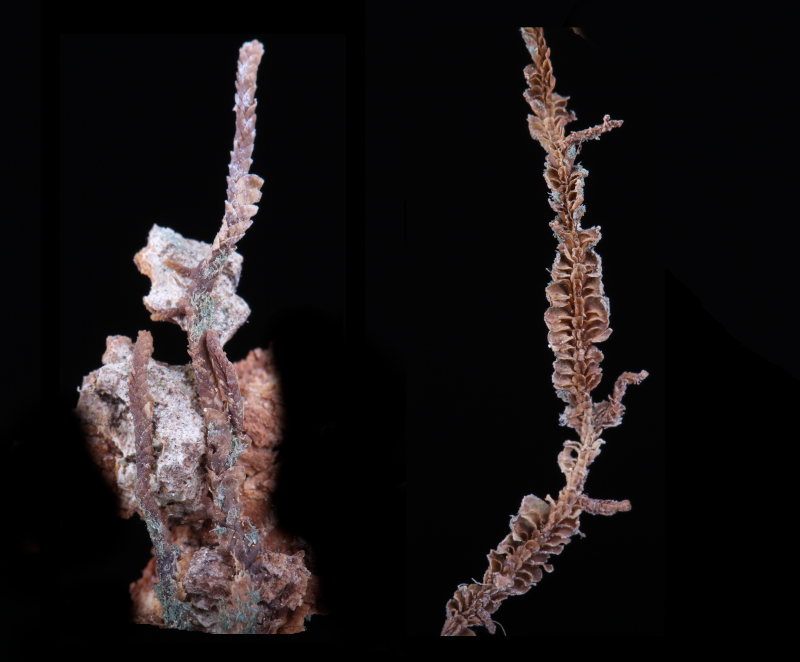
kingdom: Plantae
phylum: Marchantiophyta
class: Jungermanniopsida
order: Porellales
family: Lejeuneaceae
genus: Thysananthus
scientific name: Thysananthus comosus
